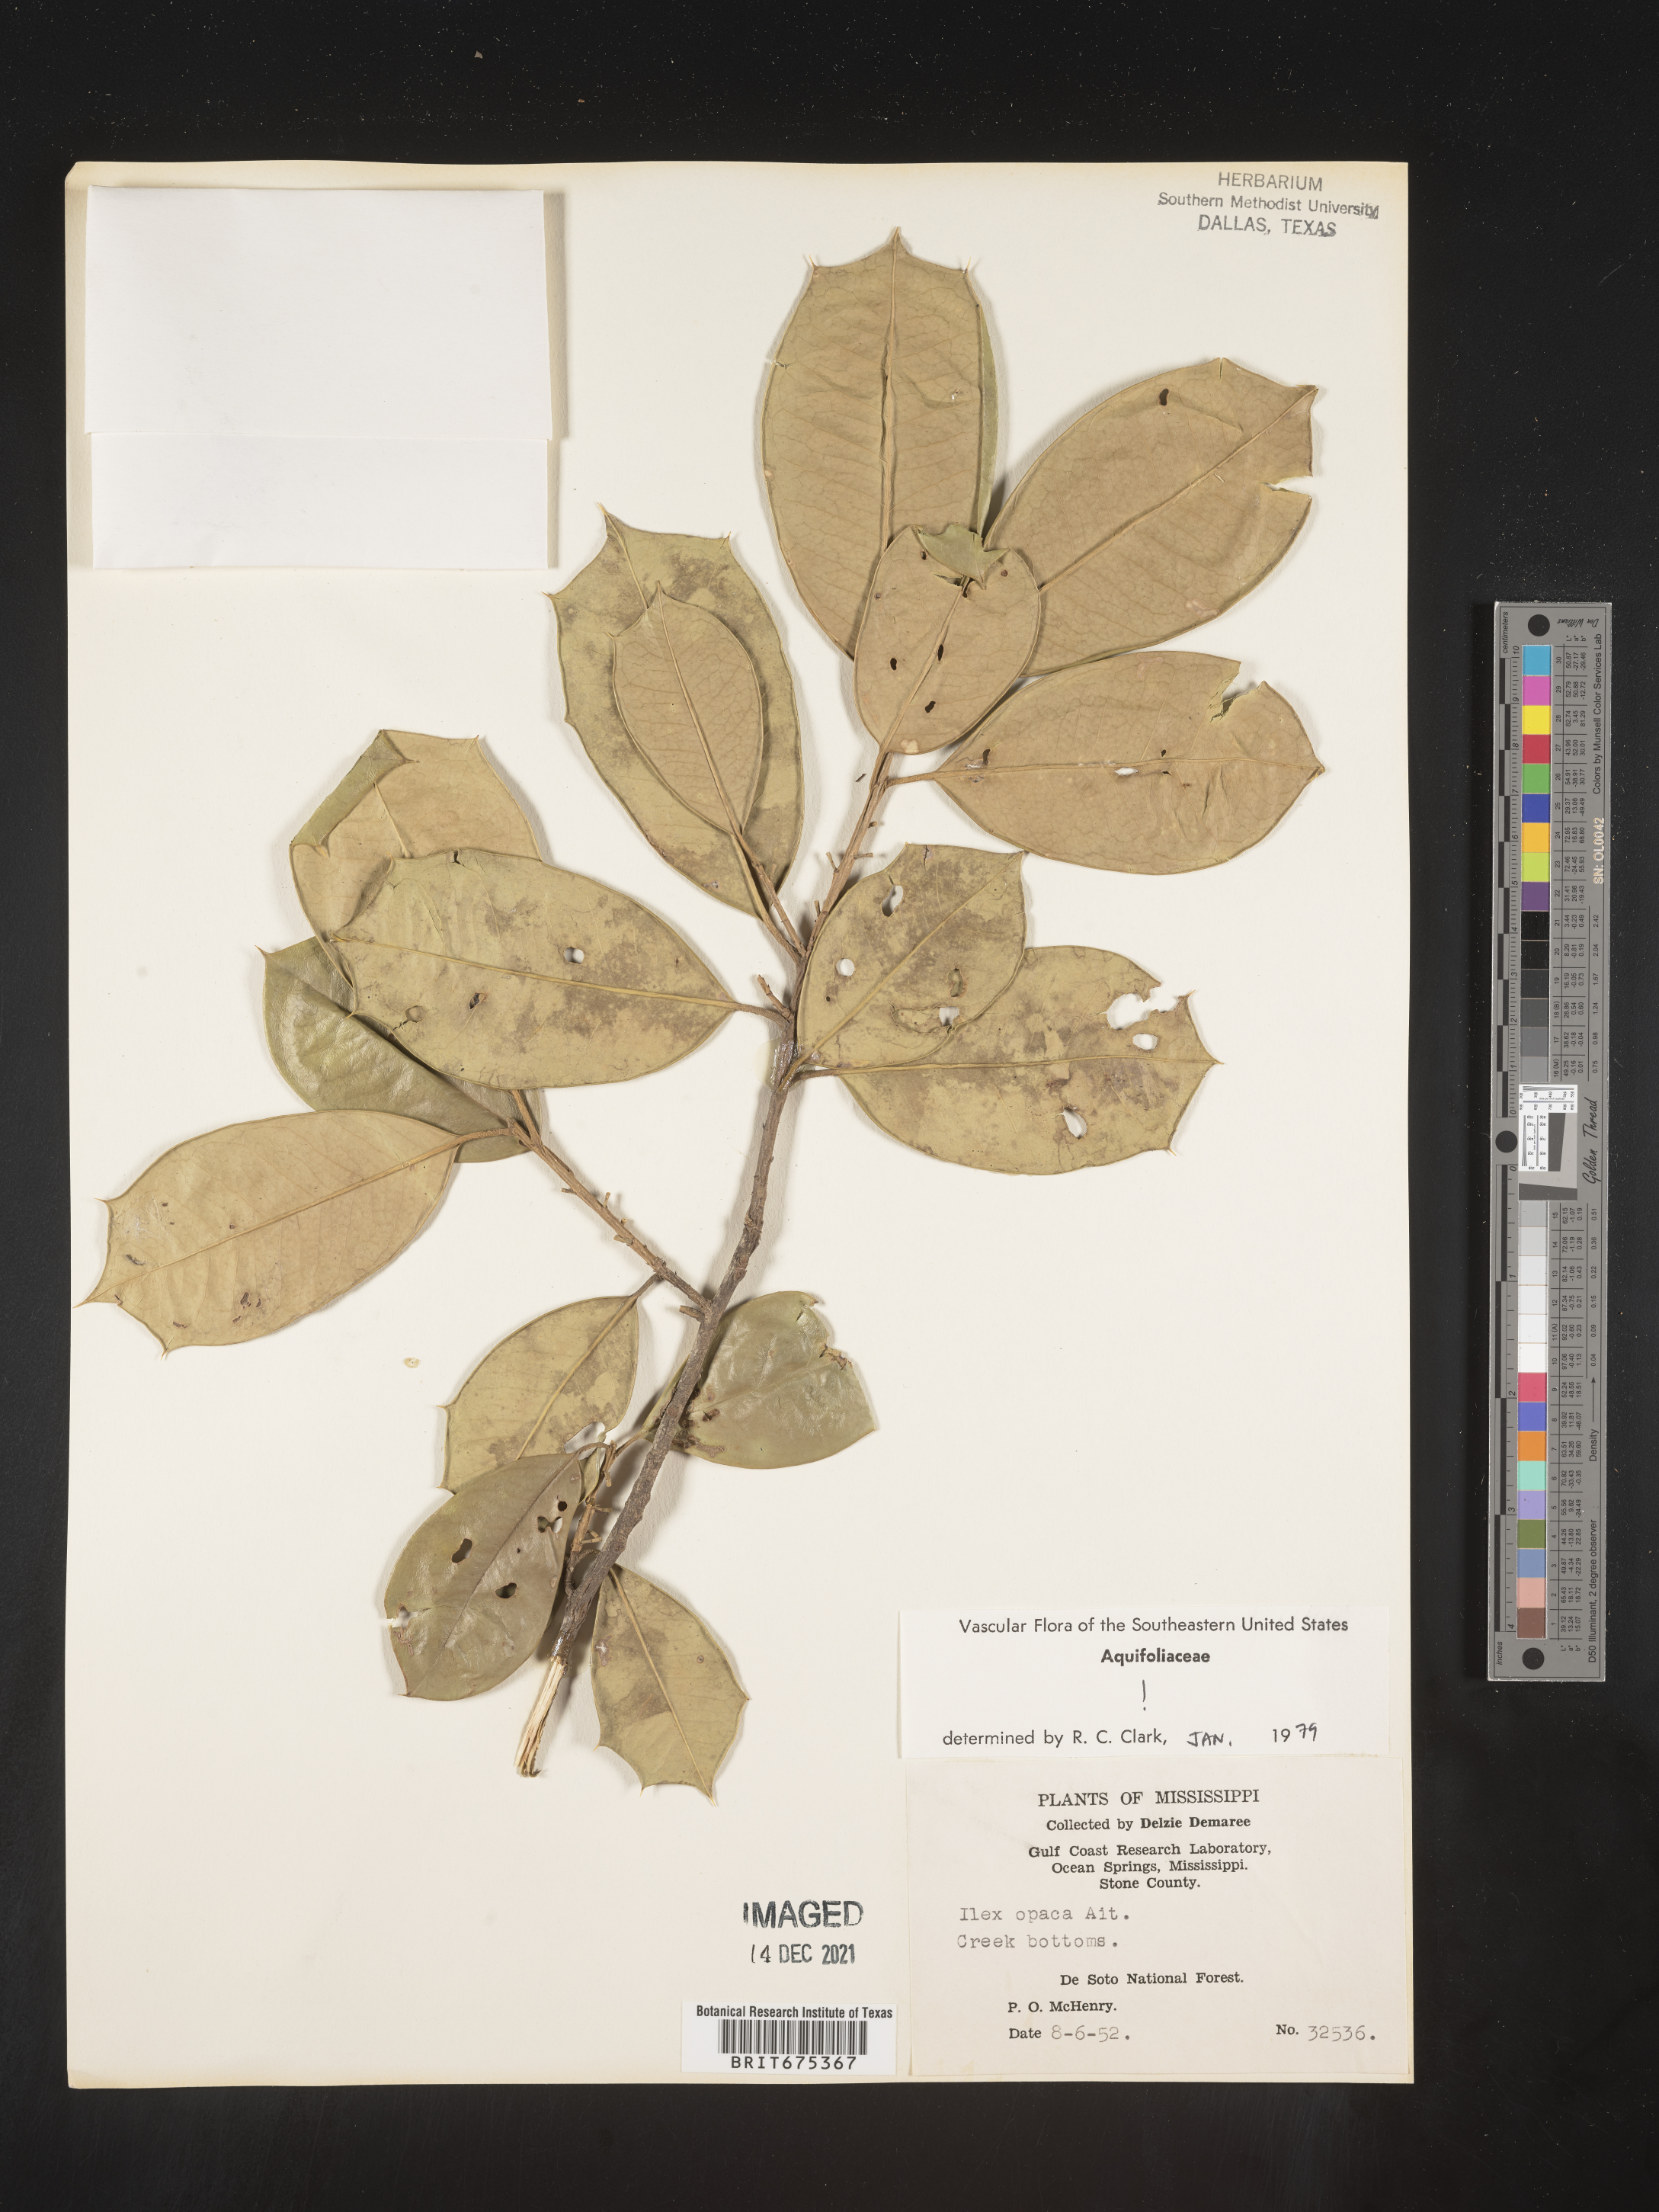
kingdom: Plantae
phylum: Tracheophyta
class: Magnoliopsida
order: Aquifoliales
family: Aquifoliaceae
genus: Ilex
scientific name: Ilex opaca
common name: American holly
